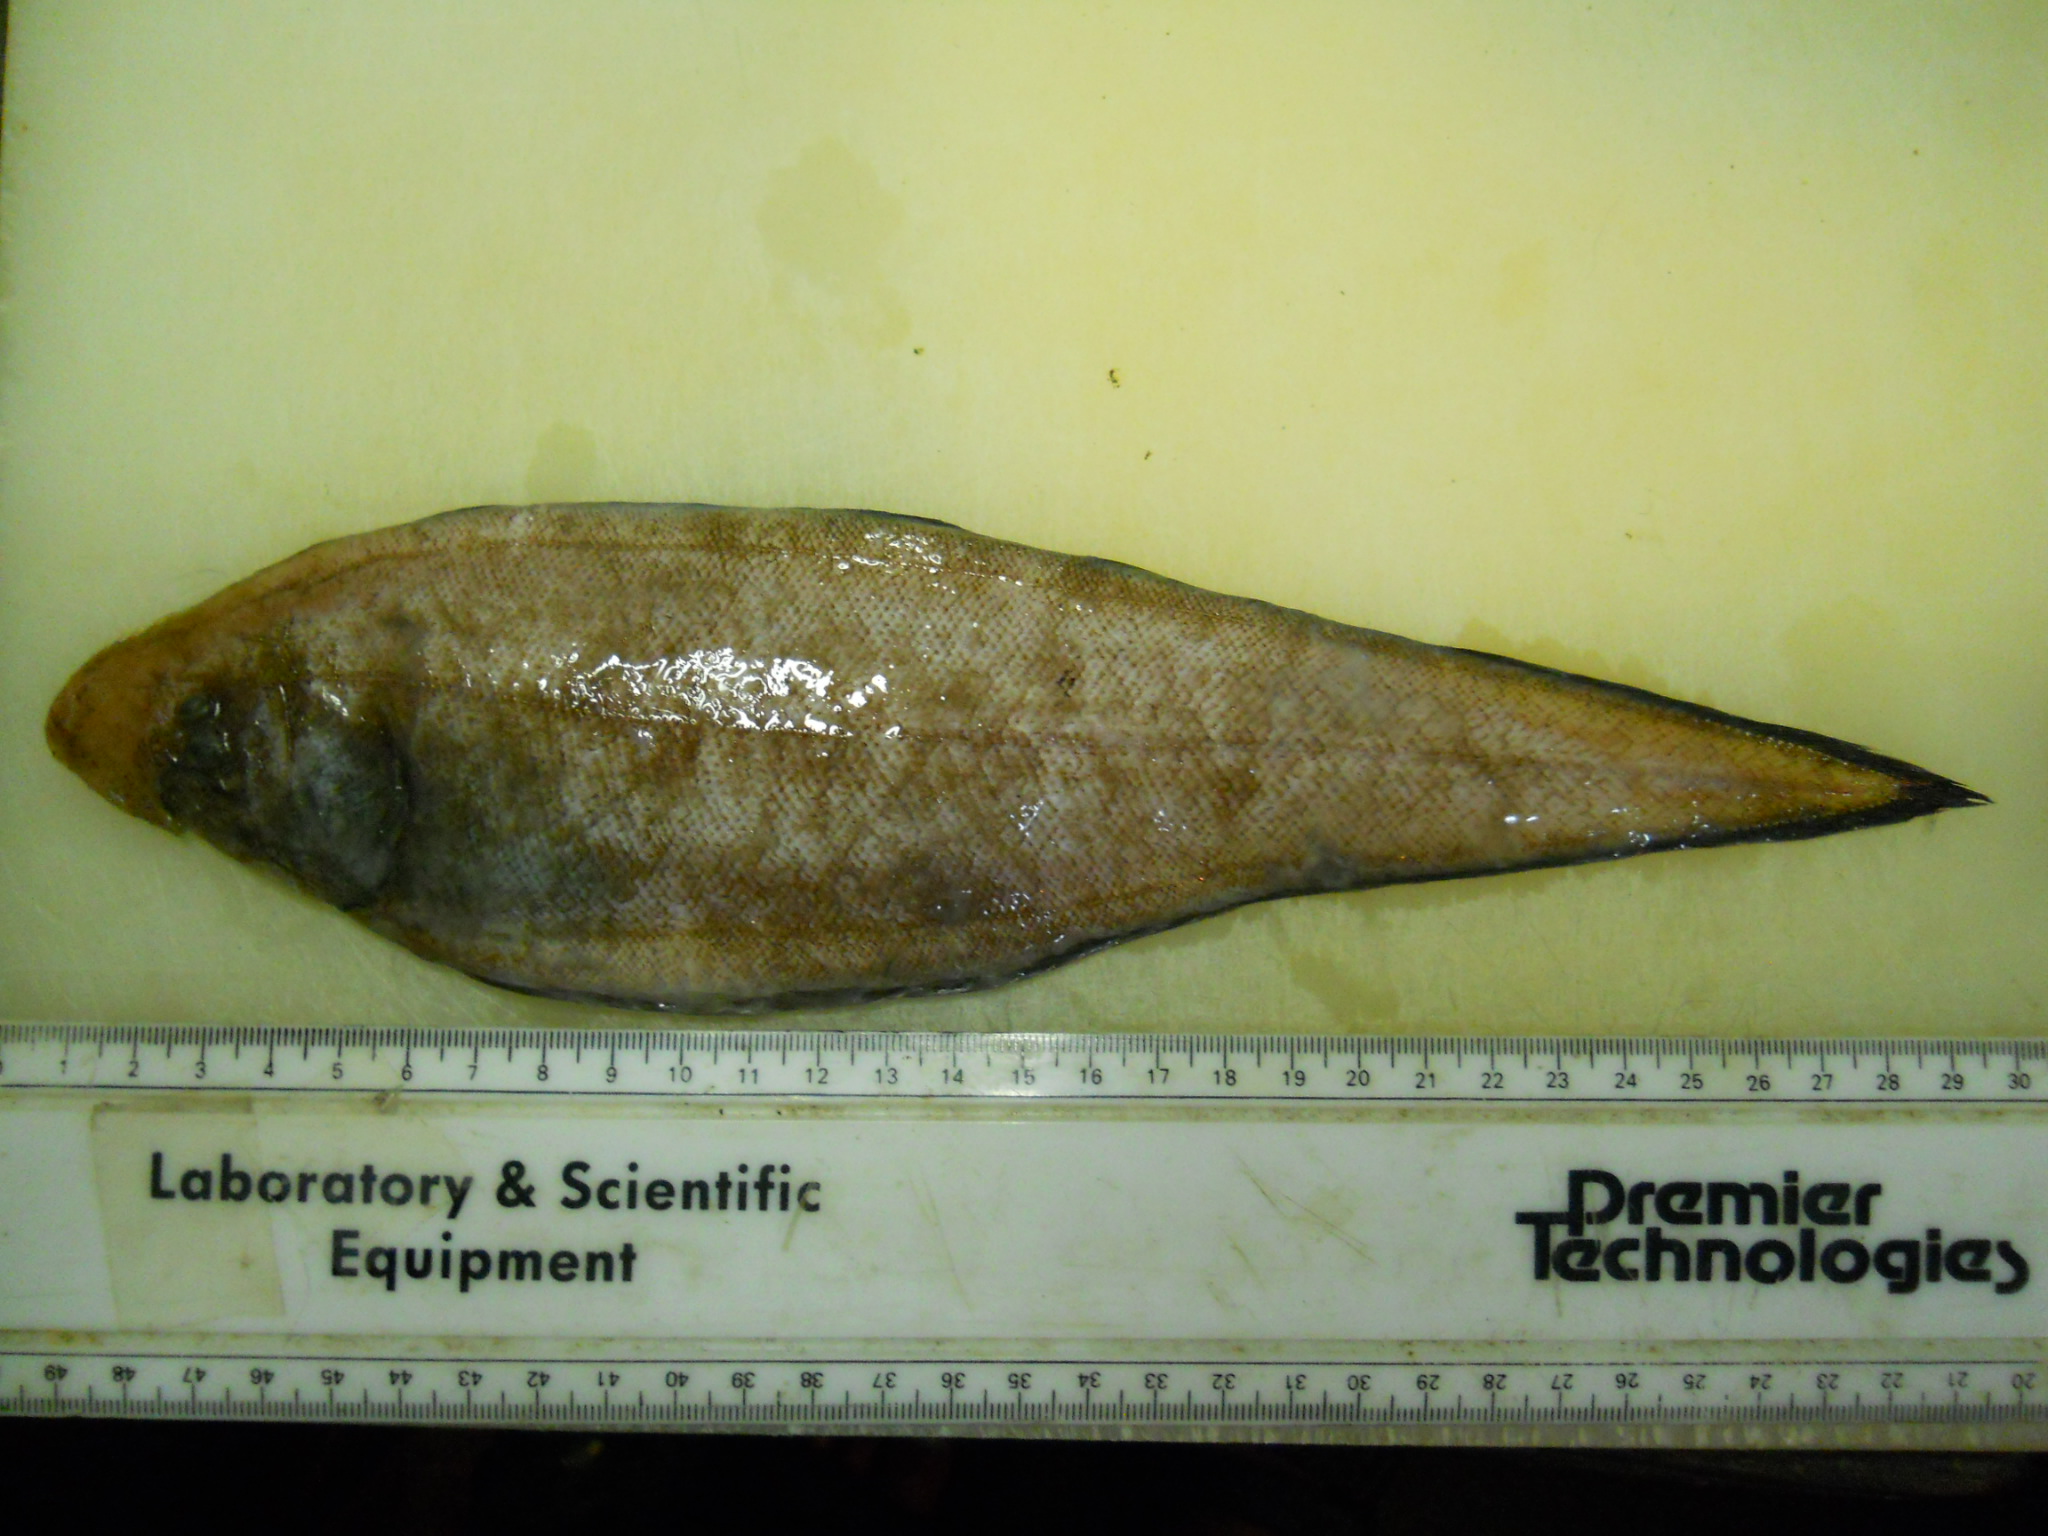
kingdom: Animalia
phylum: Chordata
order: Pleuronectiformes
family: Cynoglossidae
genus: Cynoglossus
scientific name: Cynoglossus marleyi
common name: Threeline tonguesole
